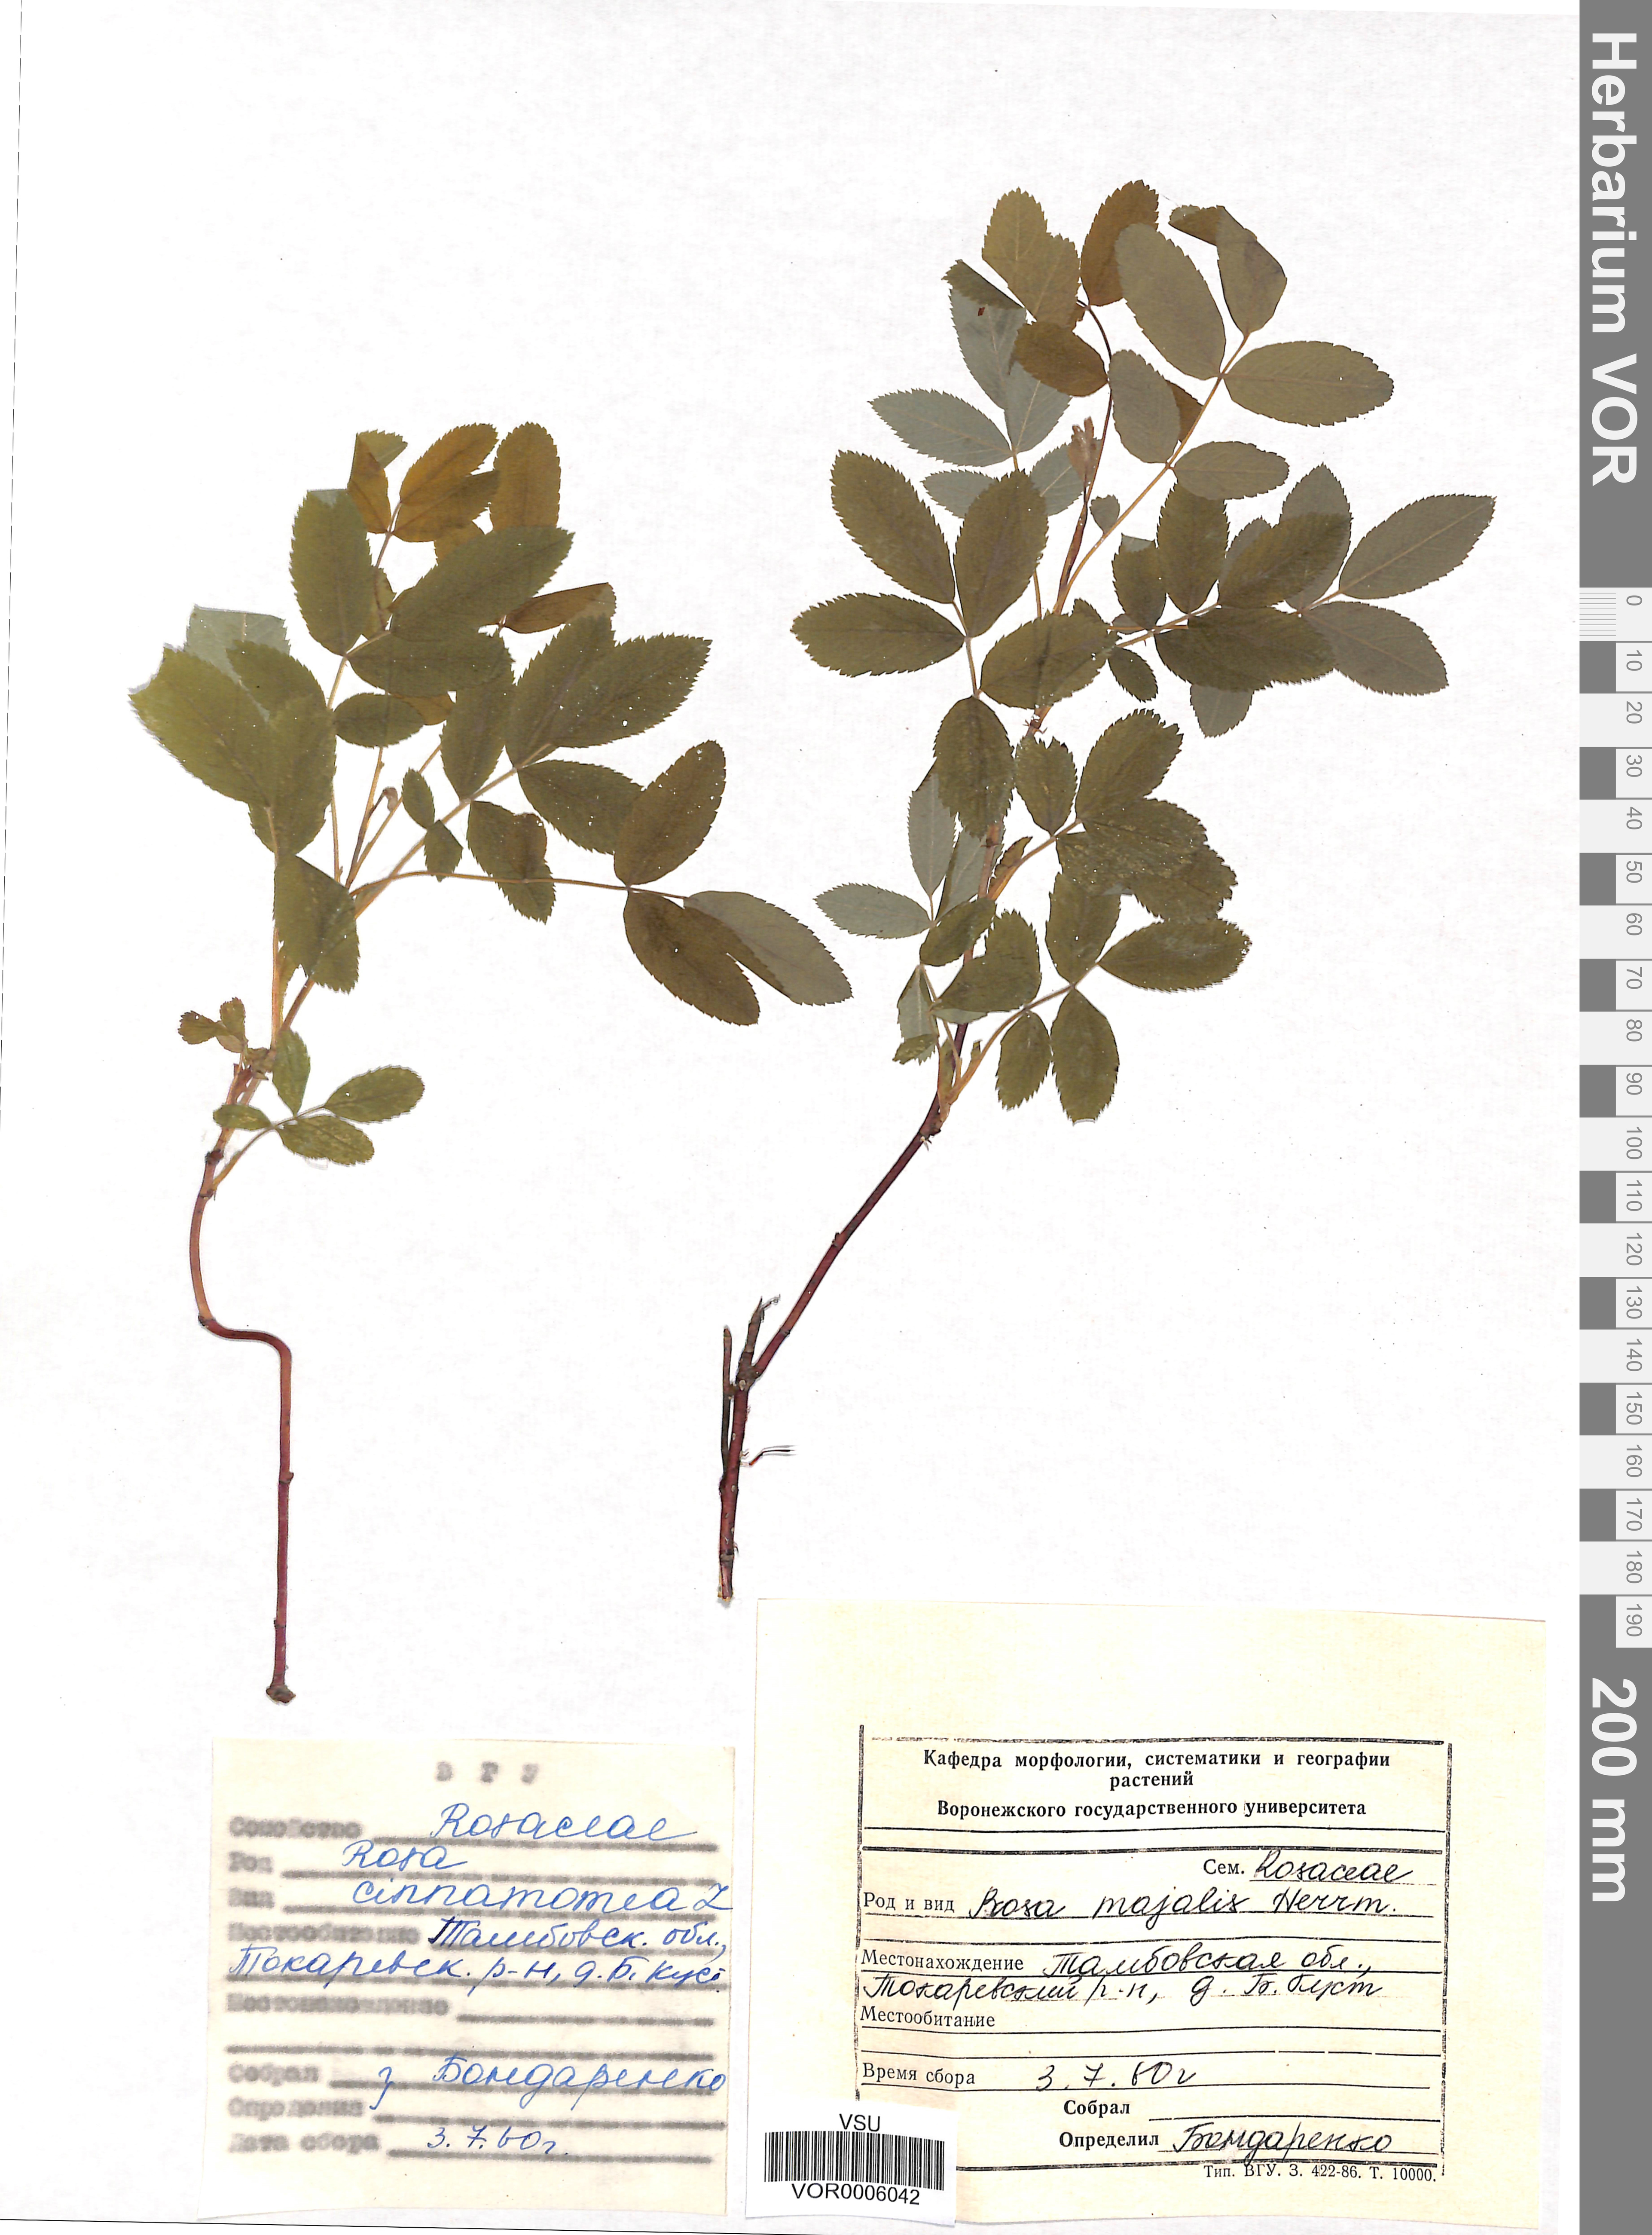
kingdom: Plantae
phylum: Tracheophyta
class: Magnoliopsida
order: Rosales
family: Rosaceae
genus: Rosa
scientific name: Rosa majalis
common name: Cinnamon rose
